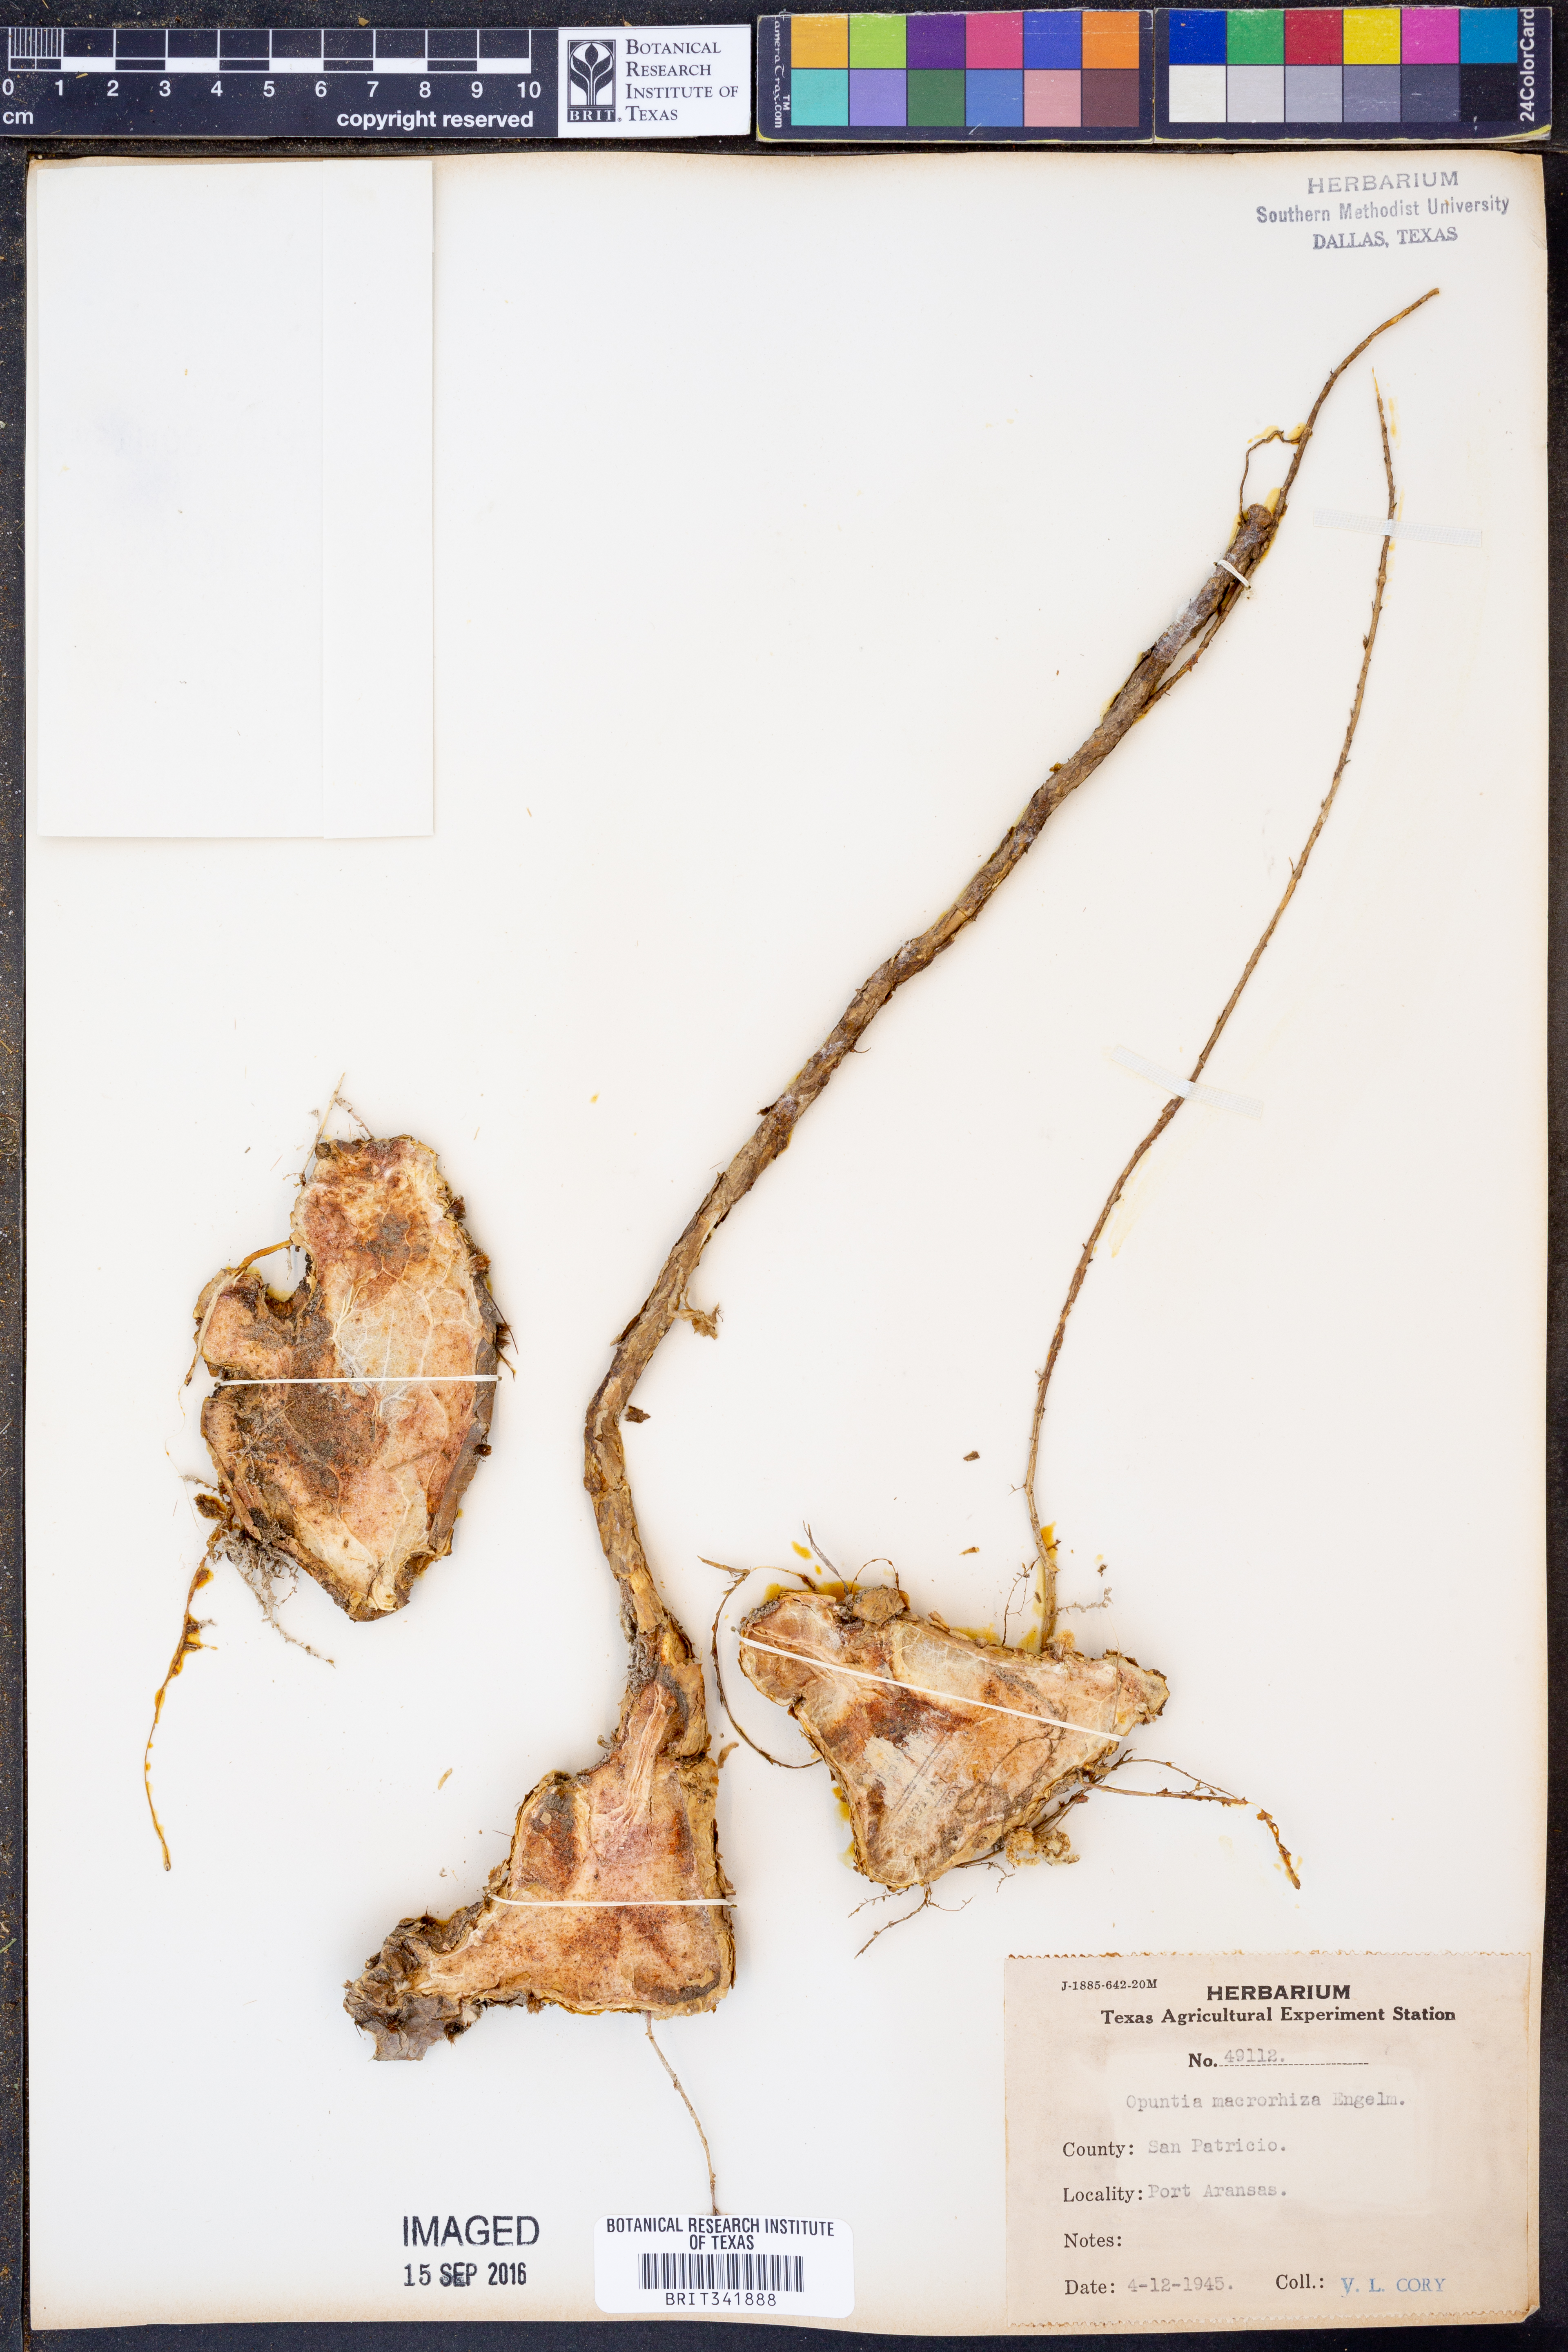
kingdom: Plantae
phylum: Tracheophyta
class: Magnoliopsida
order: Caryophyllales
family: Cactaceae
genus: Opuntia
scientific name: Opuntia macrorhiza
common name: Grassland pricklypear
